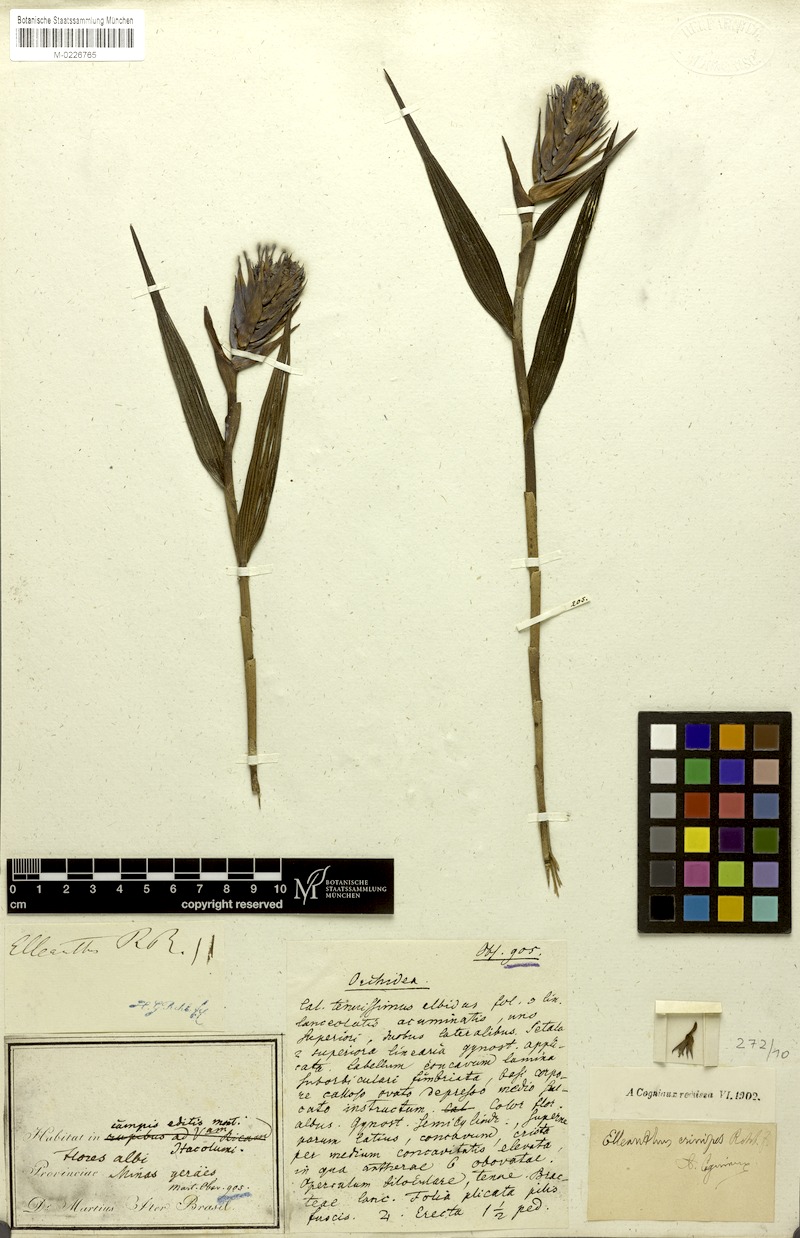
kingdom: Plantae
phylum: Tracheophyta
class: Liliopsida
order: Asparagales
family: Orchidaceae
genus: Elleanthus
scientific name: Elleanthus crinipes
